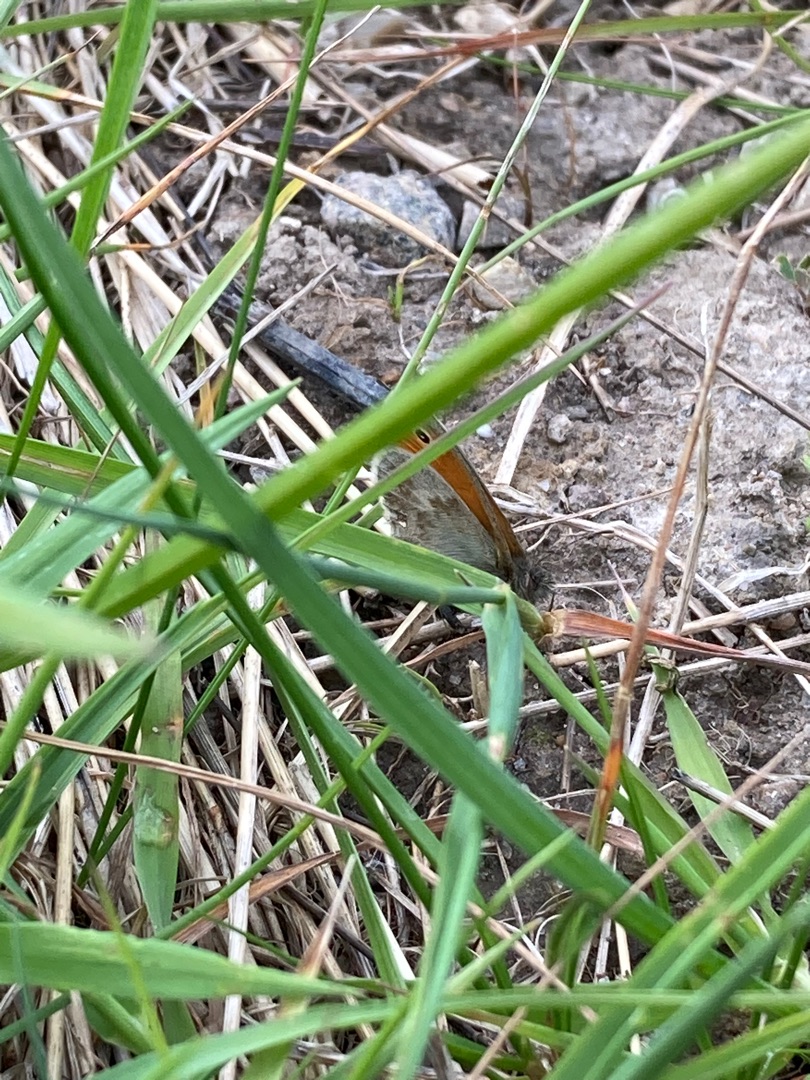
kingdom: Animalia
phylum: Arthropoda
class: Insecta
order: Lepidoptera
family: Nymphalidae
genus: Coenonympha
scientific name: Coenonympha pamphilus
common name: Okkergul randøje
